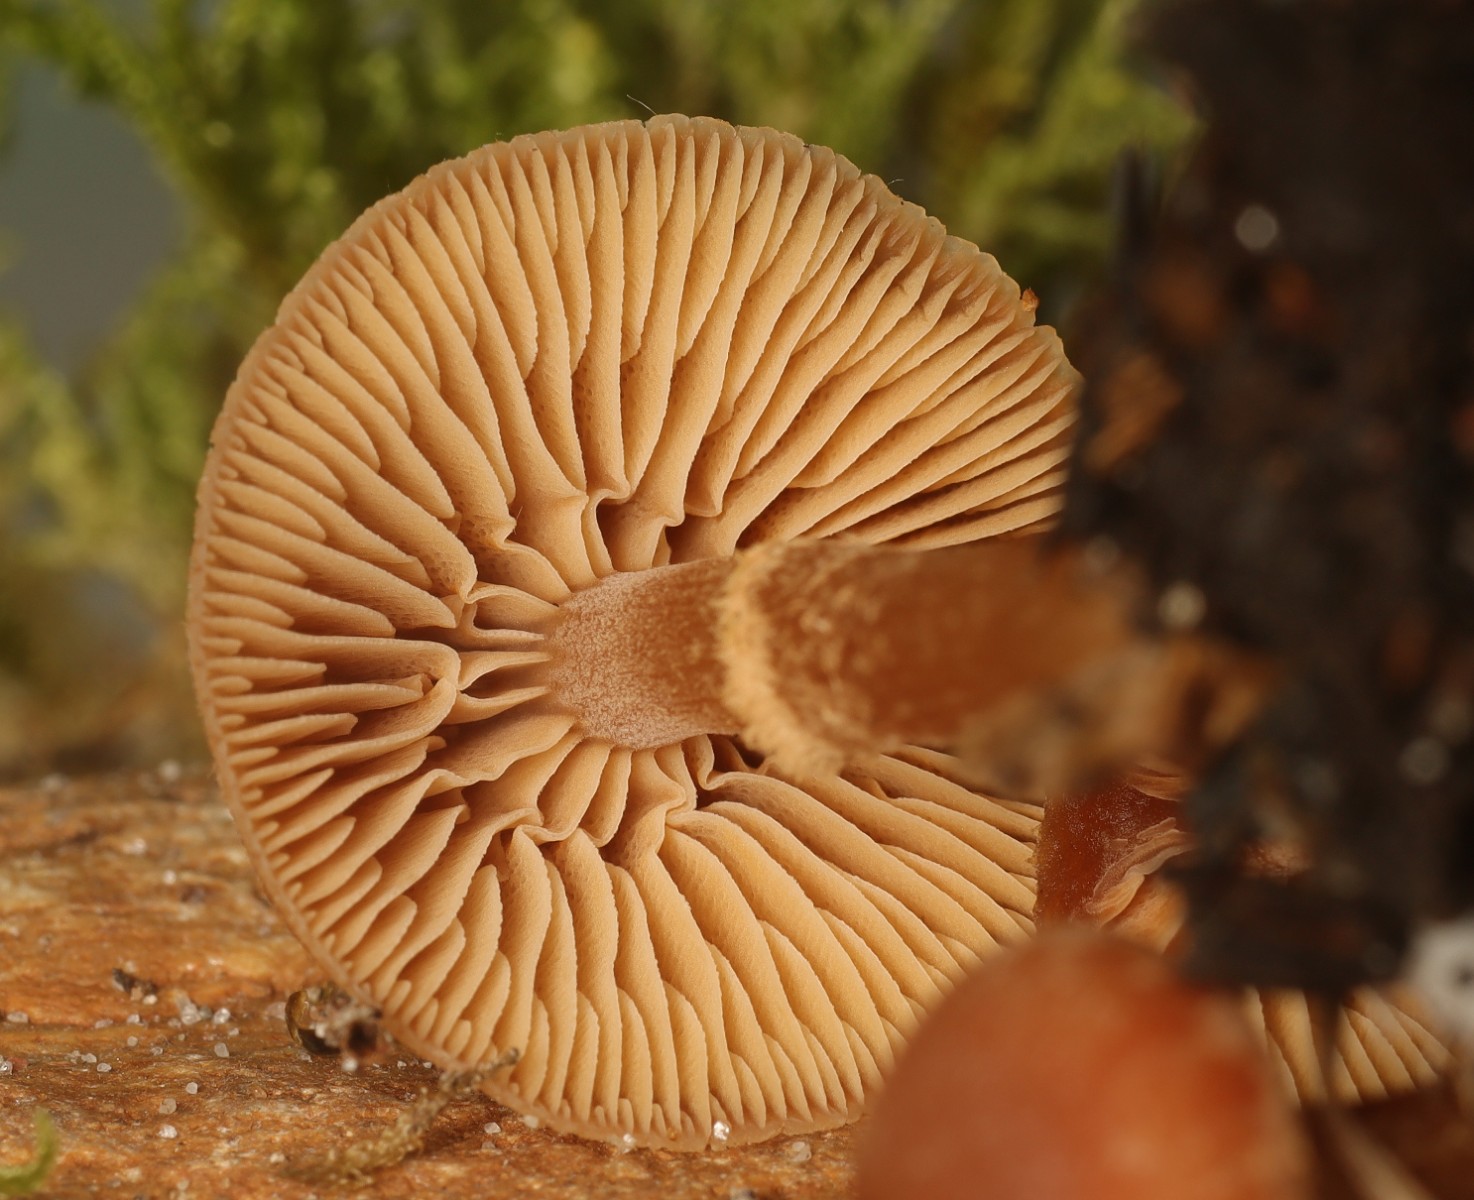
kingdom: Fungi
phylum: Basidiomycota
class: Agaricomycetes
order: Agaricales
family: Tubariaceae
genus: Tubaria
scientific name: Tubaria furfuracea
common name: kliddet fnughat
